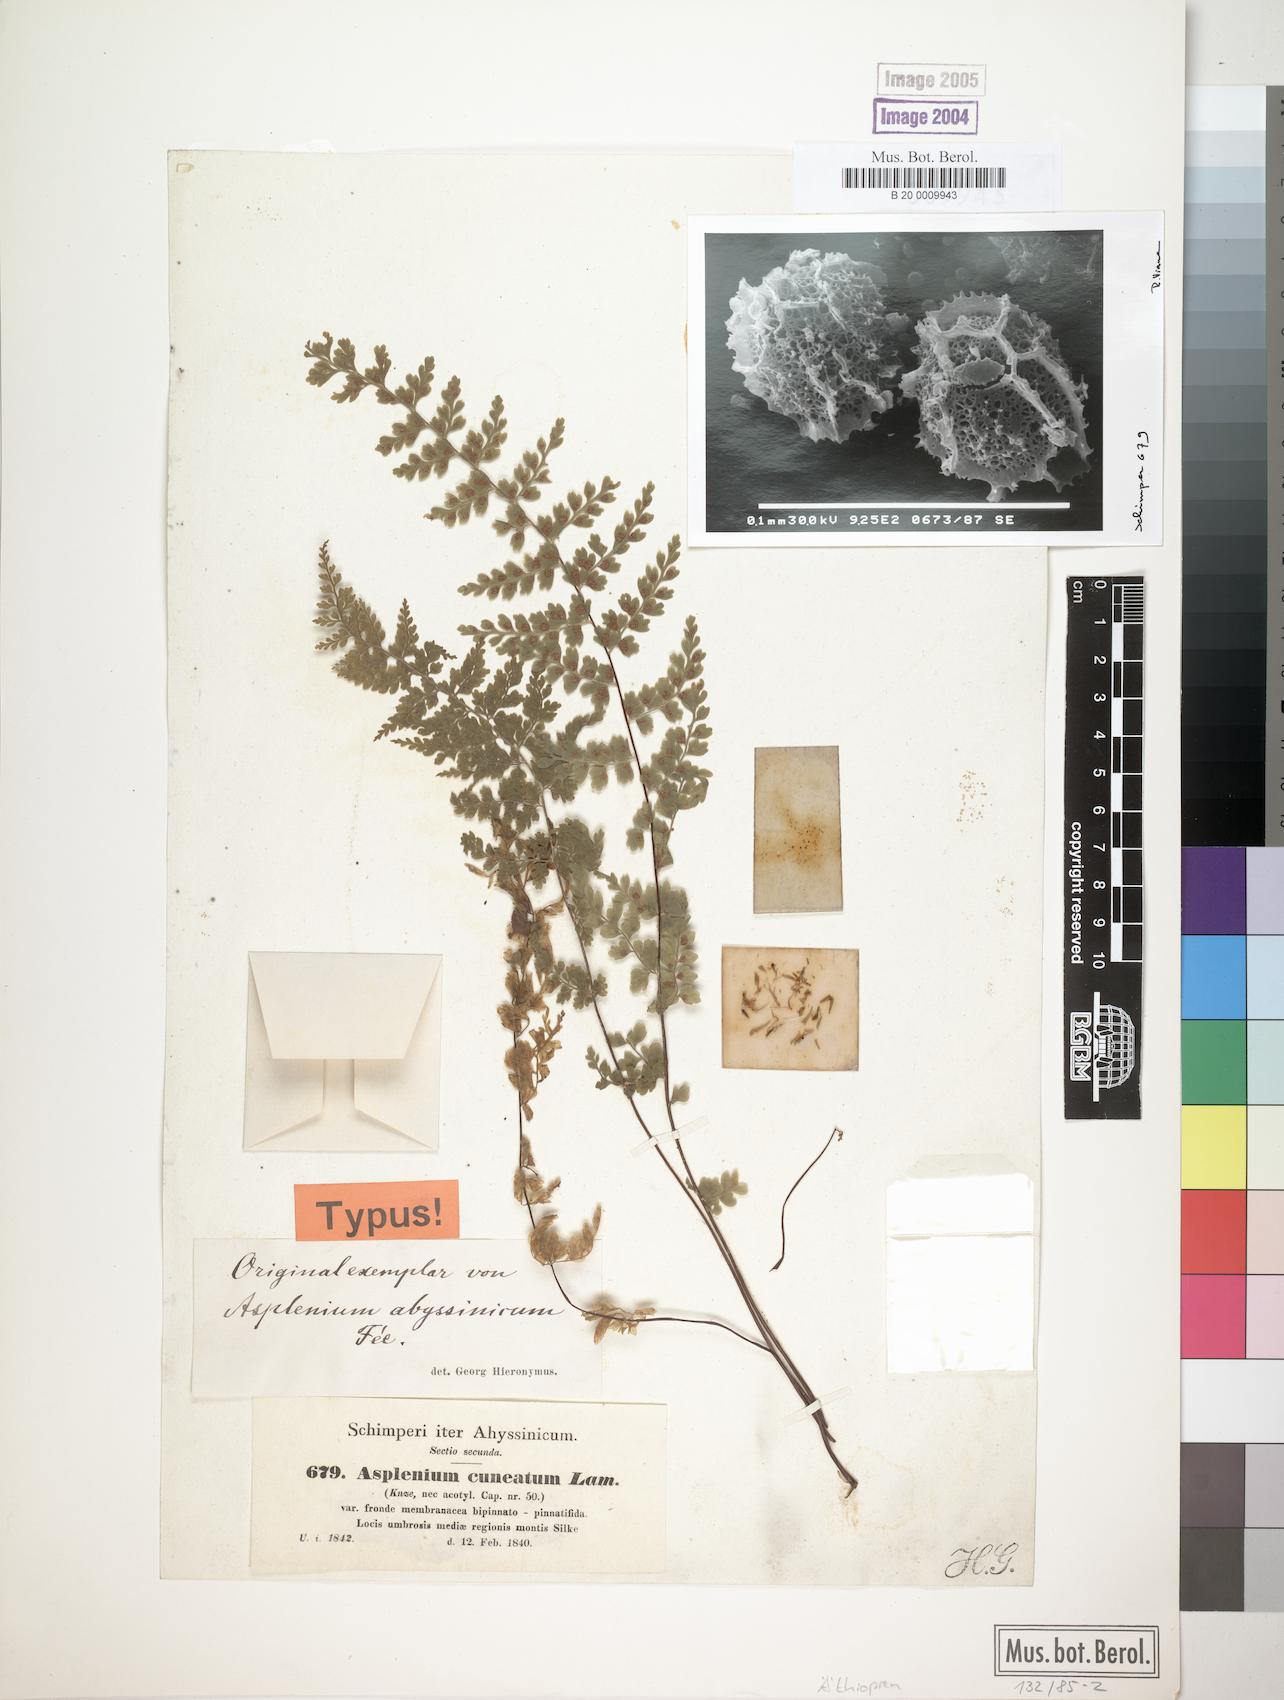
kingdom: Plantae
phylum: Tracheophyta
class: Polypodiopsida
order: Polypodiales
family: Aspleniaceae
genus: Asplenium
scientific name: Asplenium abyssinicum
